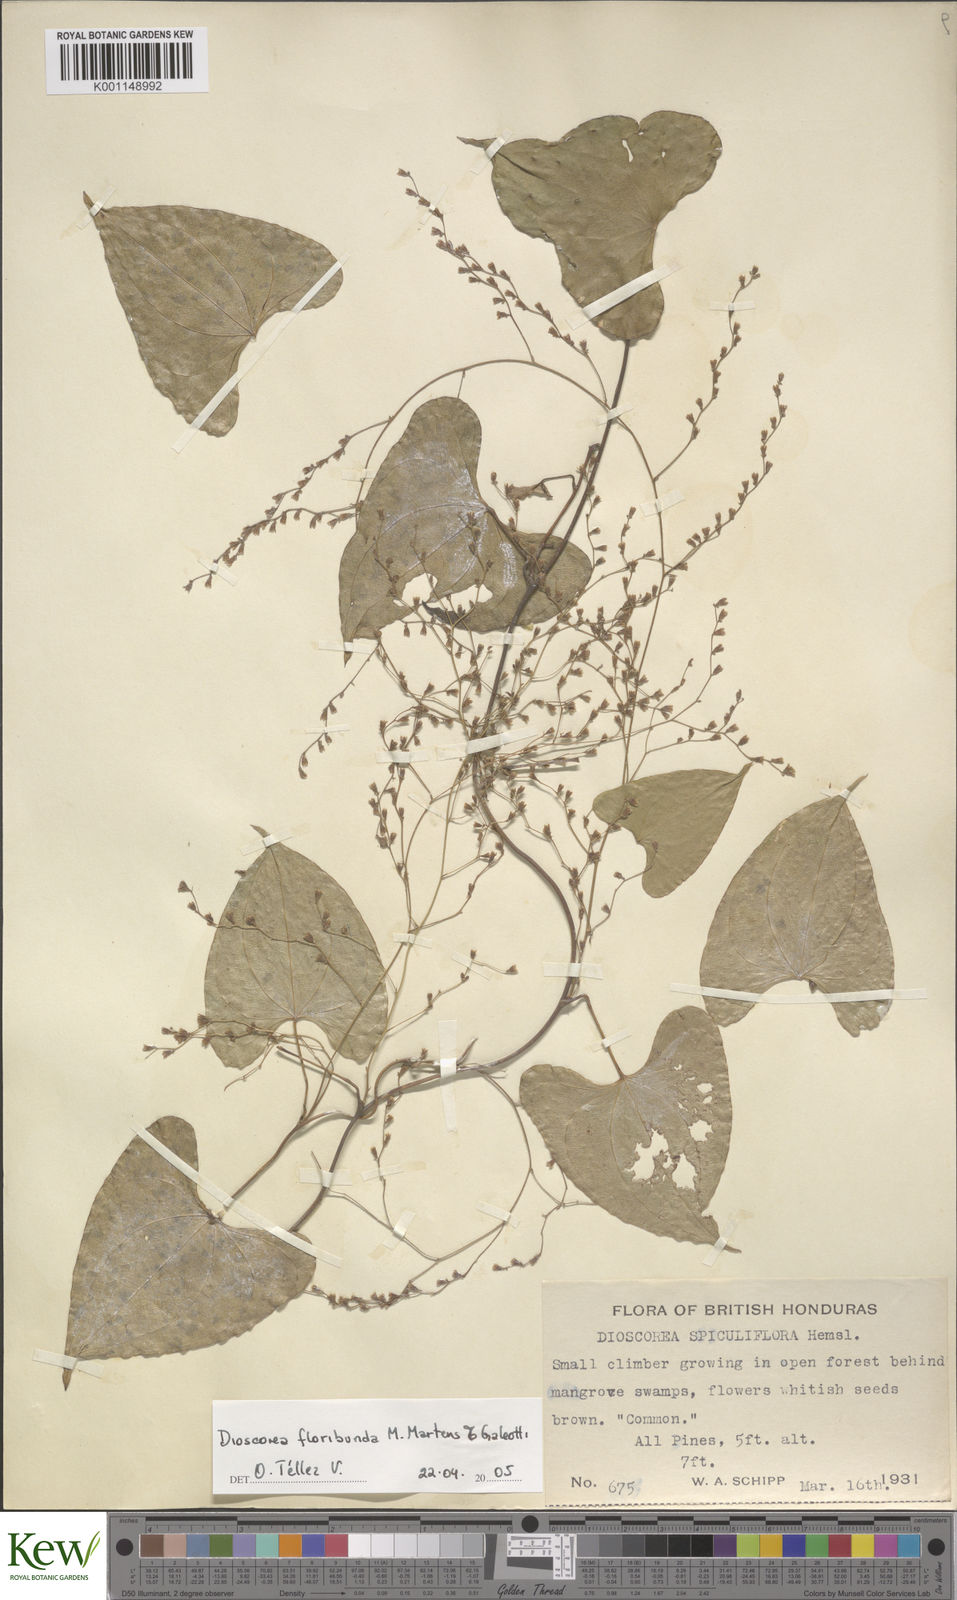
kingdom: Plantae
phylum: Tracheophyta
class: Liliopsida
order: Dioscoreales
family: Dioscoreaceae
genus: Dioscorea
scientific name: Dioscorea floribunda
